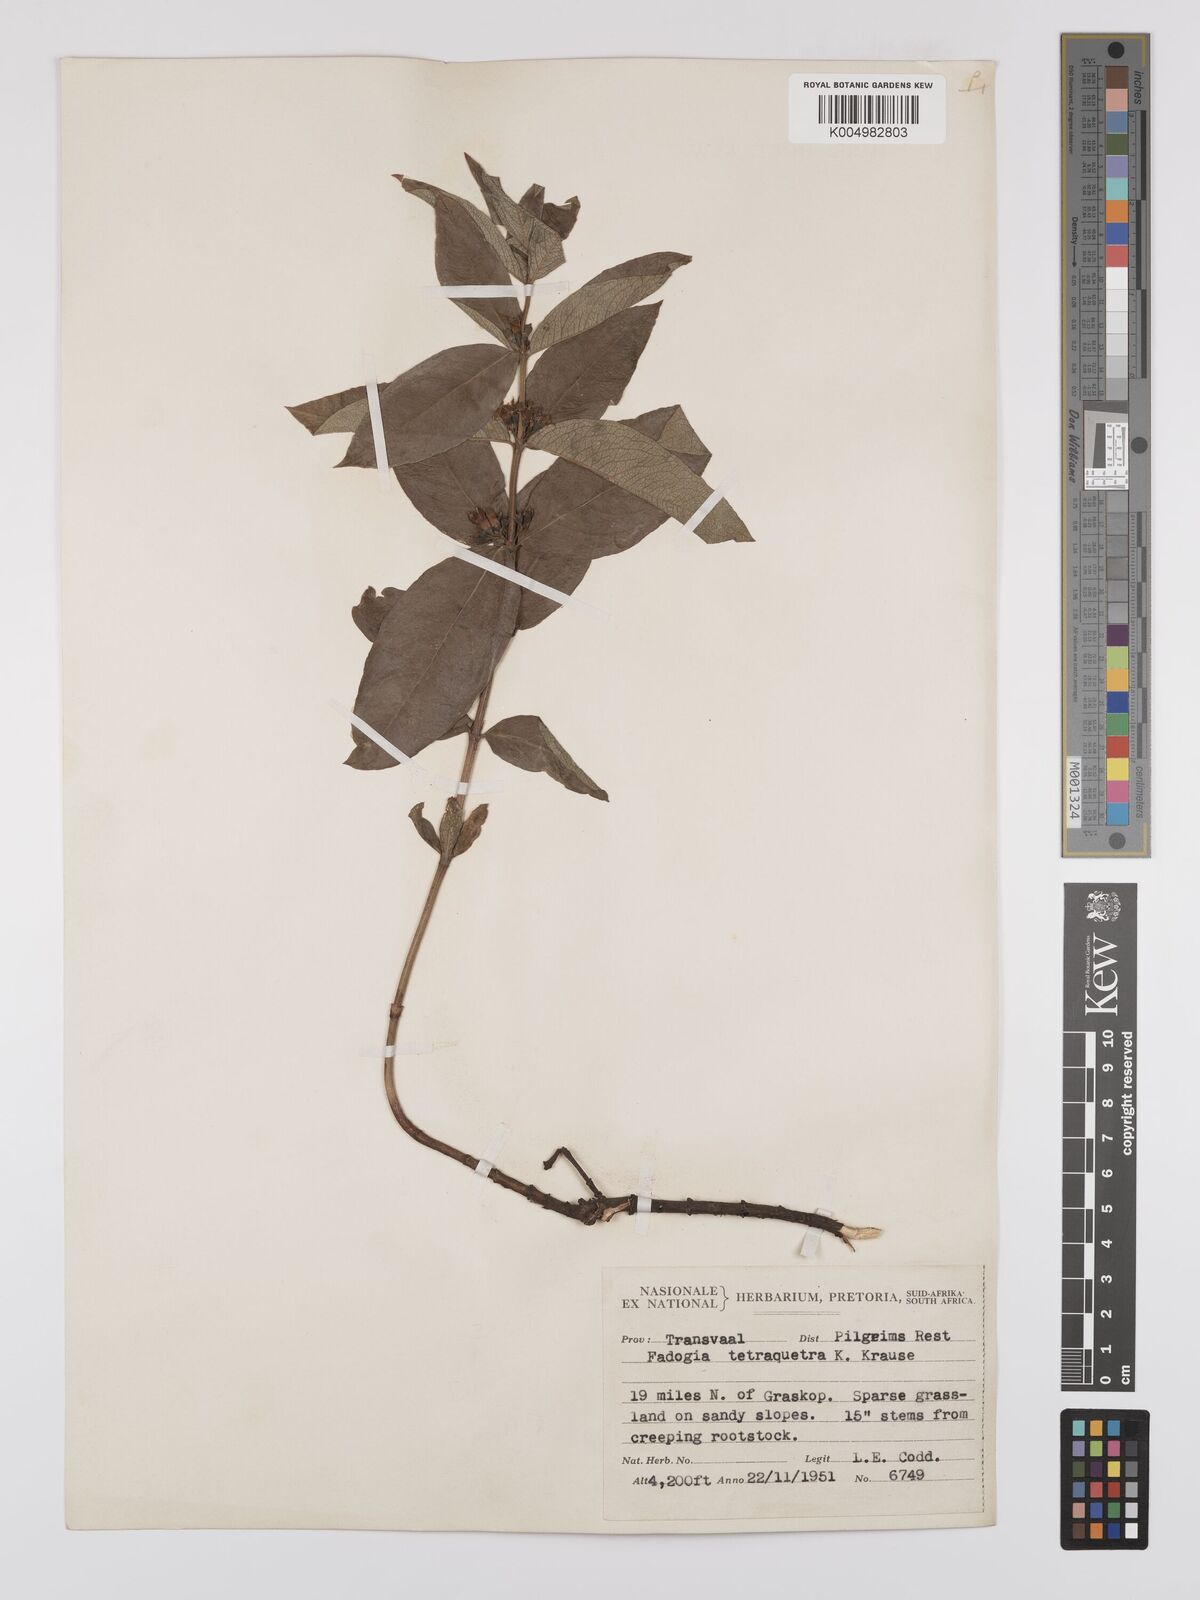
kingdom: Plantae
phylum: Tracheophyta
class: Magnoliopsida
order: Gentianales
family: Rubiaceae
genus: Fadogia
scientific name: Fadogia tetraquetra
